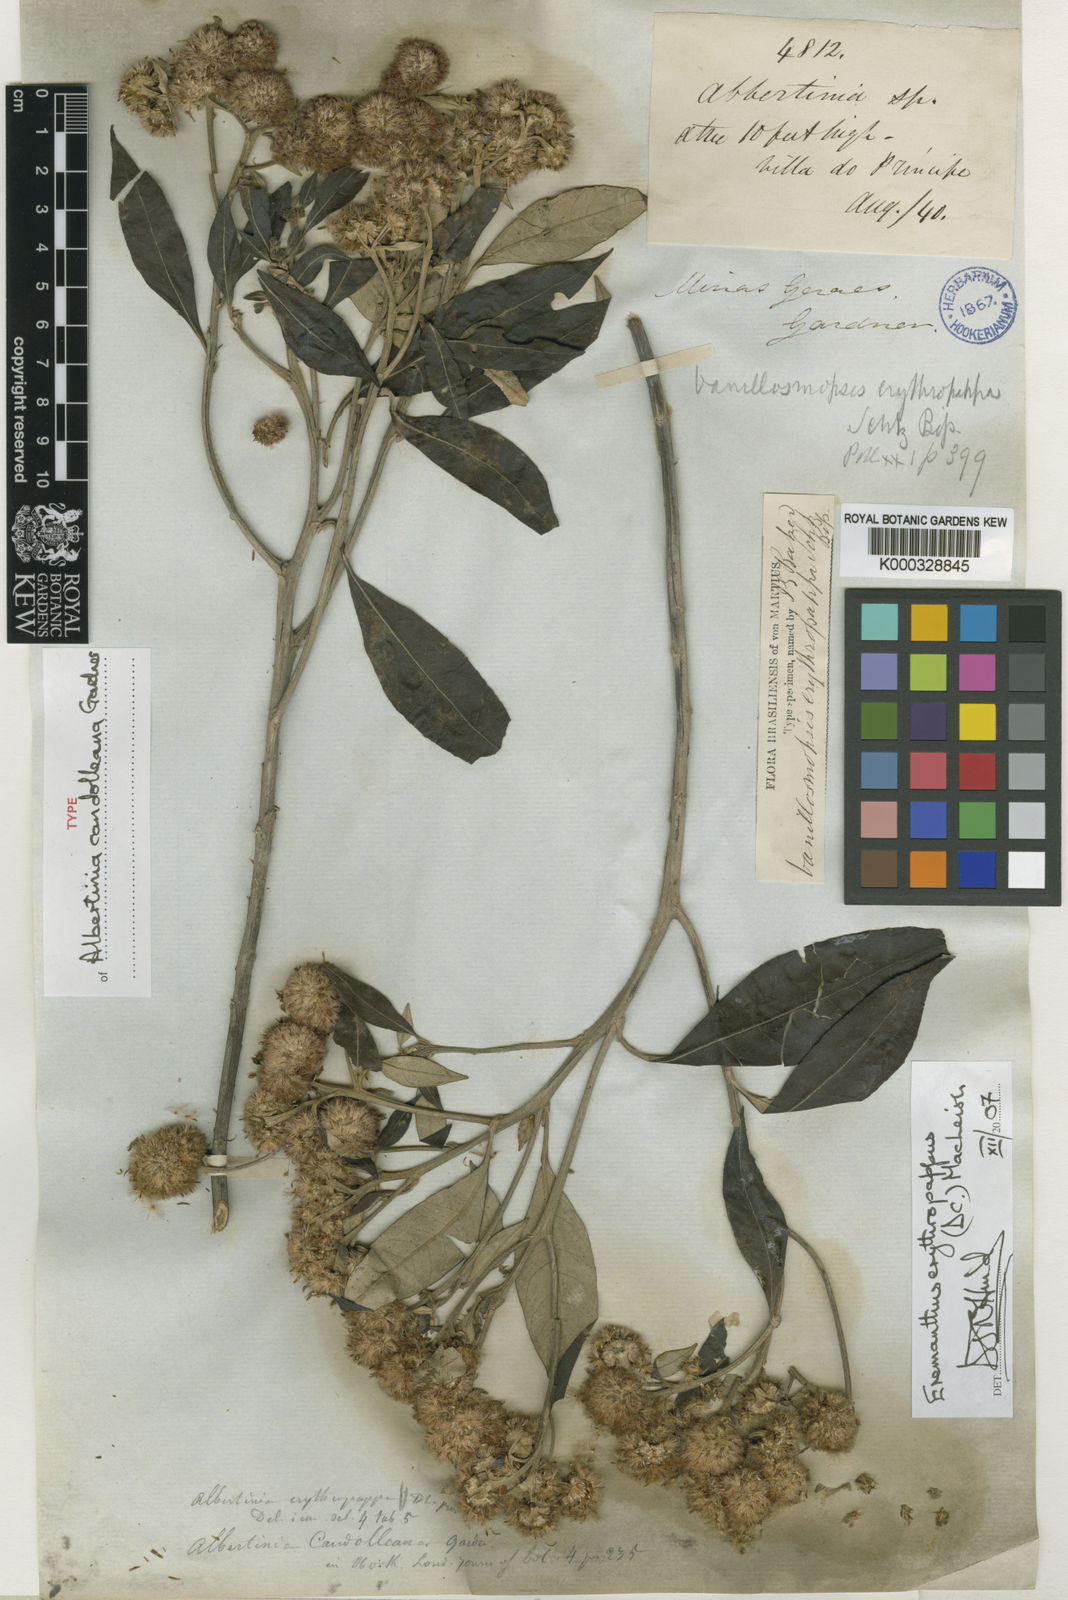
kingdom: Plantae
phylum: Tracheophyta
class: Magnoliopsida
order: Asterales
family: Asteraceae
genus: Eremanthus
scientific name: Eremanthus erythropappus
